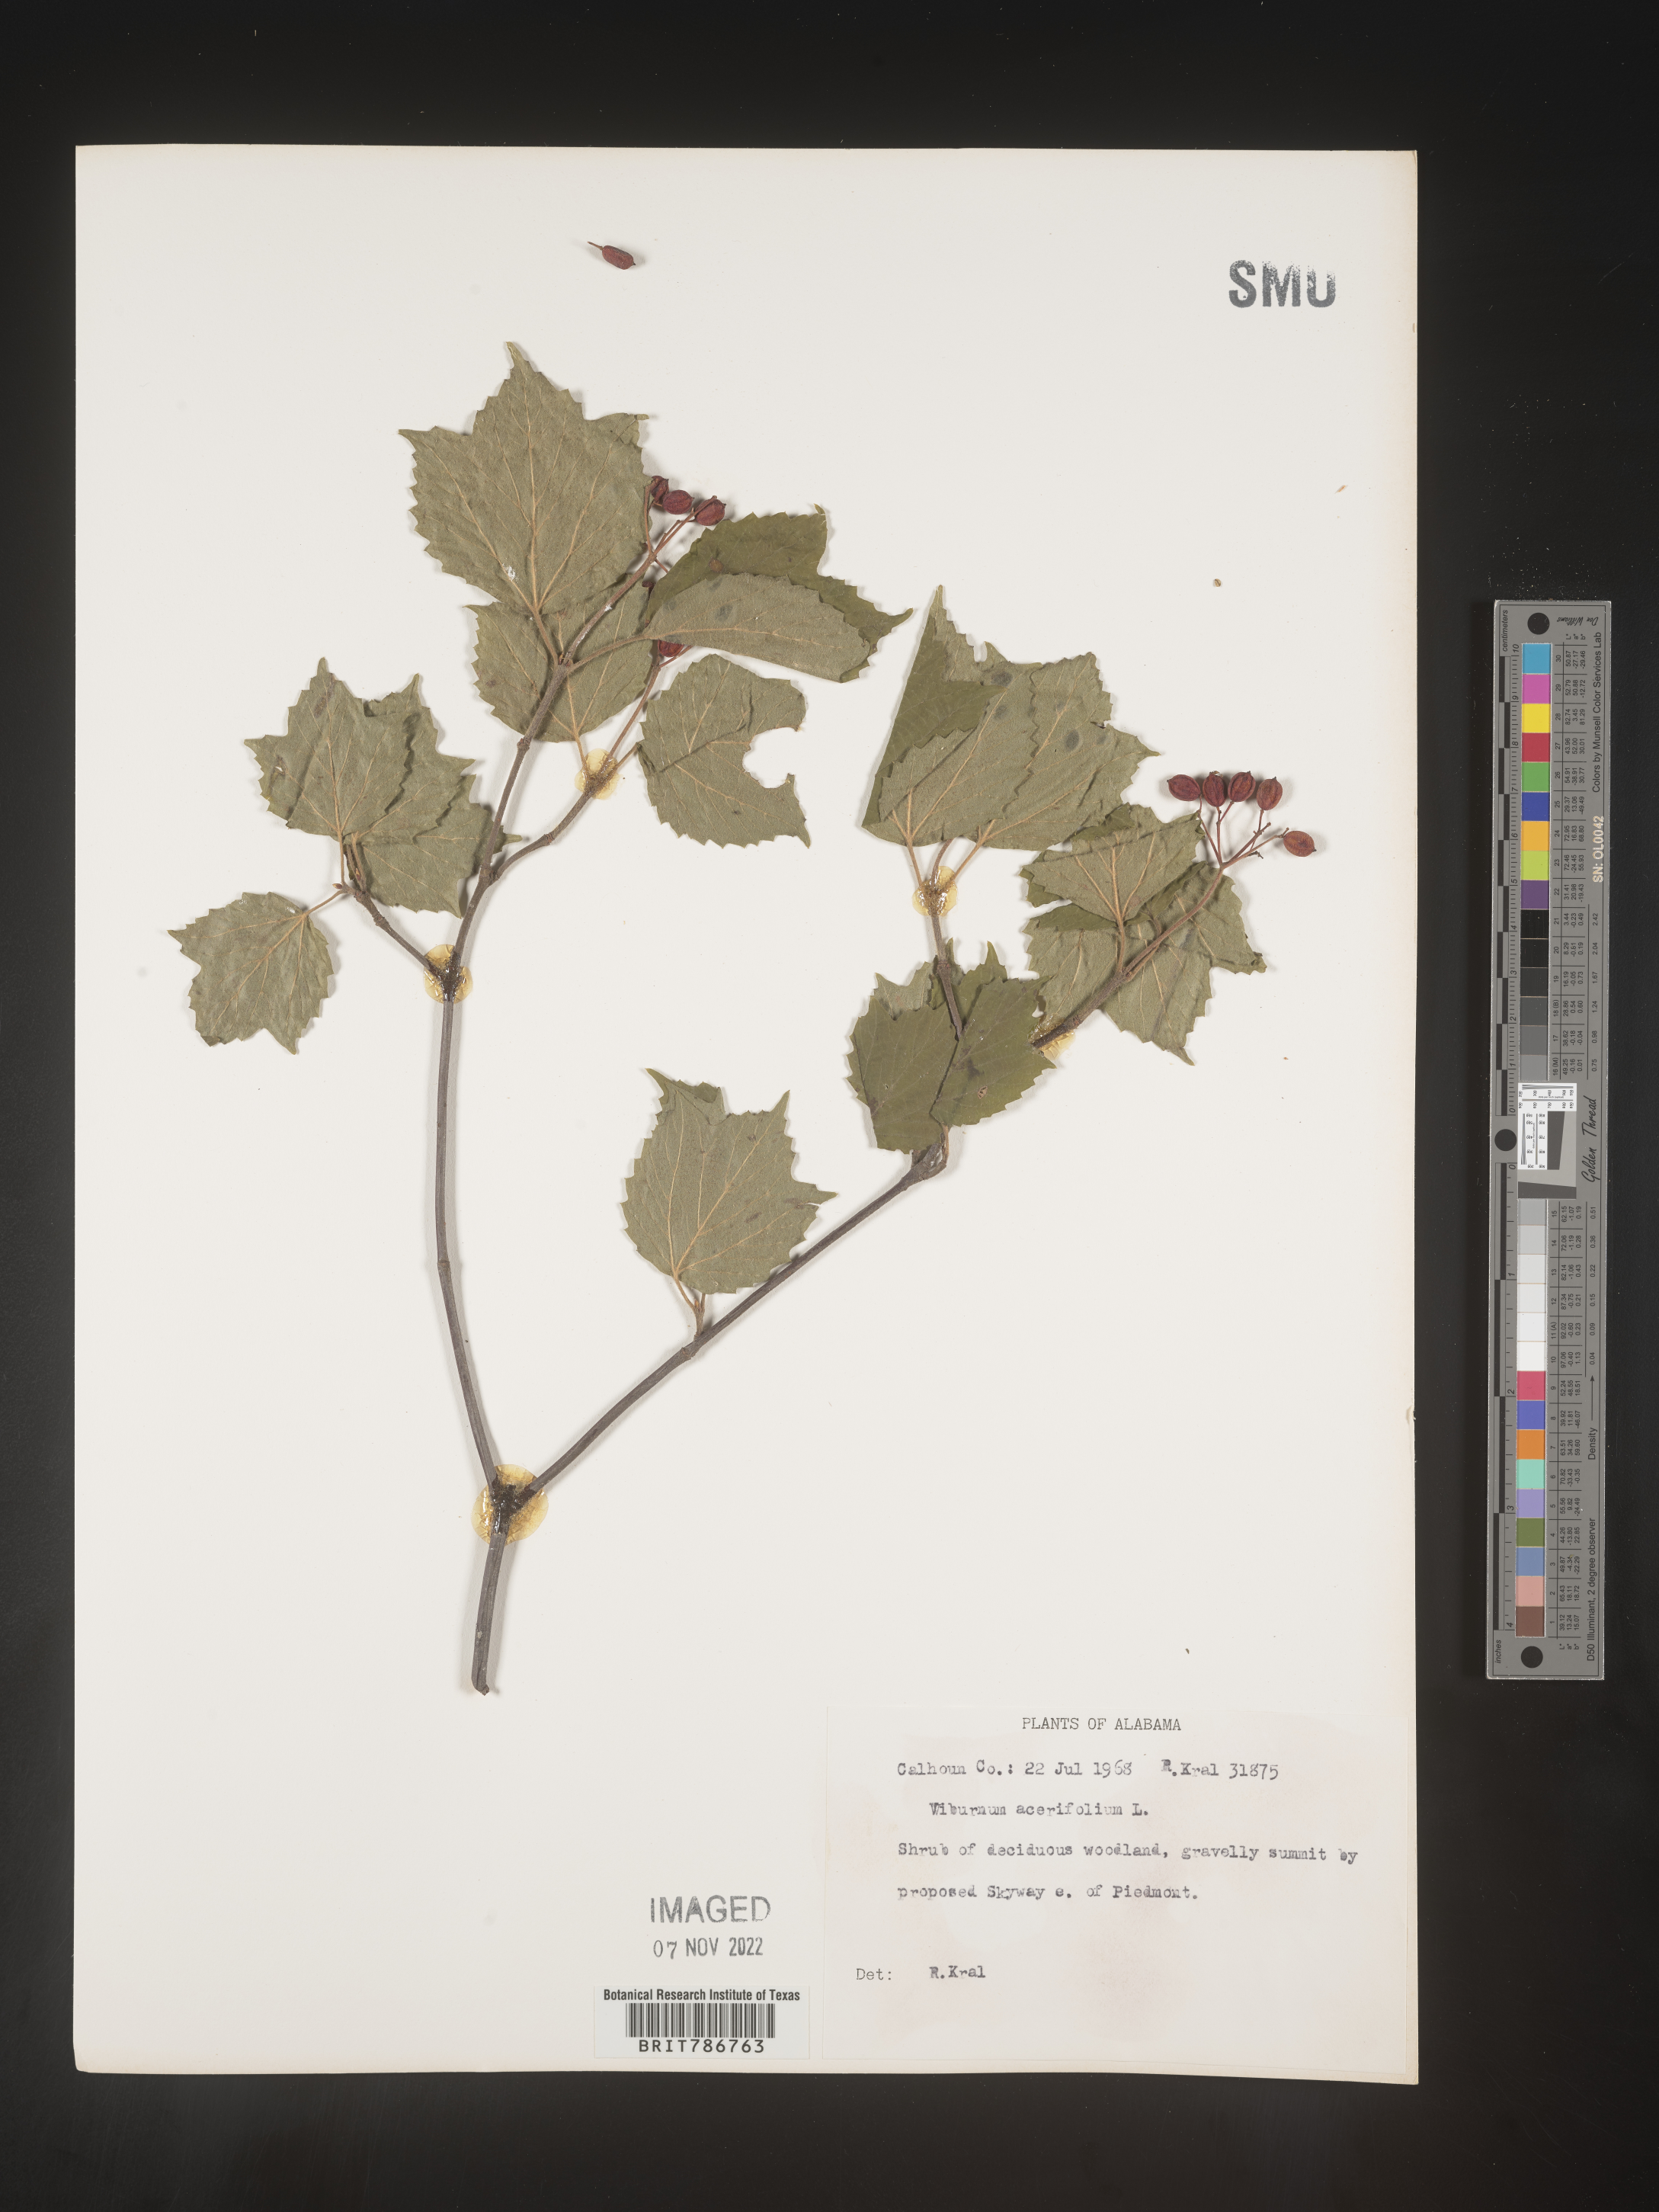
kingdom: Plantae
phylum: Tracheophyta
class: Magnoliopsida
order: Dipsacales
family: Viburnaceae
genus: Viburnum
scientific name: Viburnum acerifolium
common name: Dockmackie
